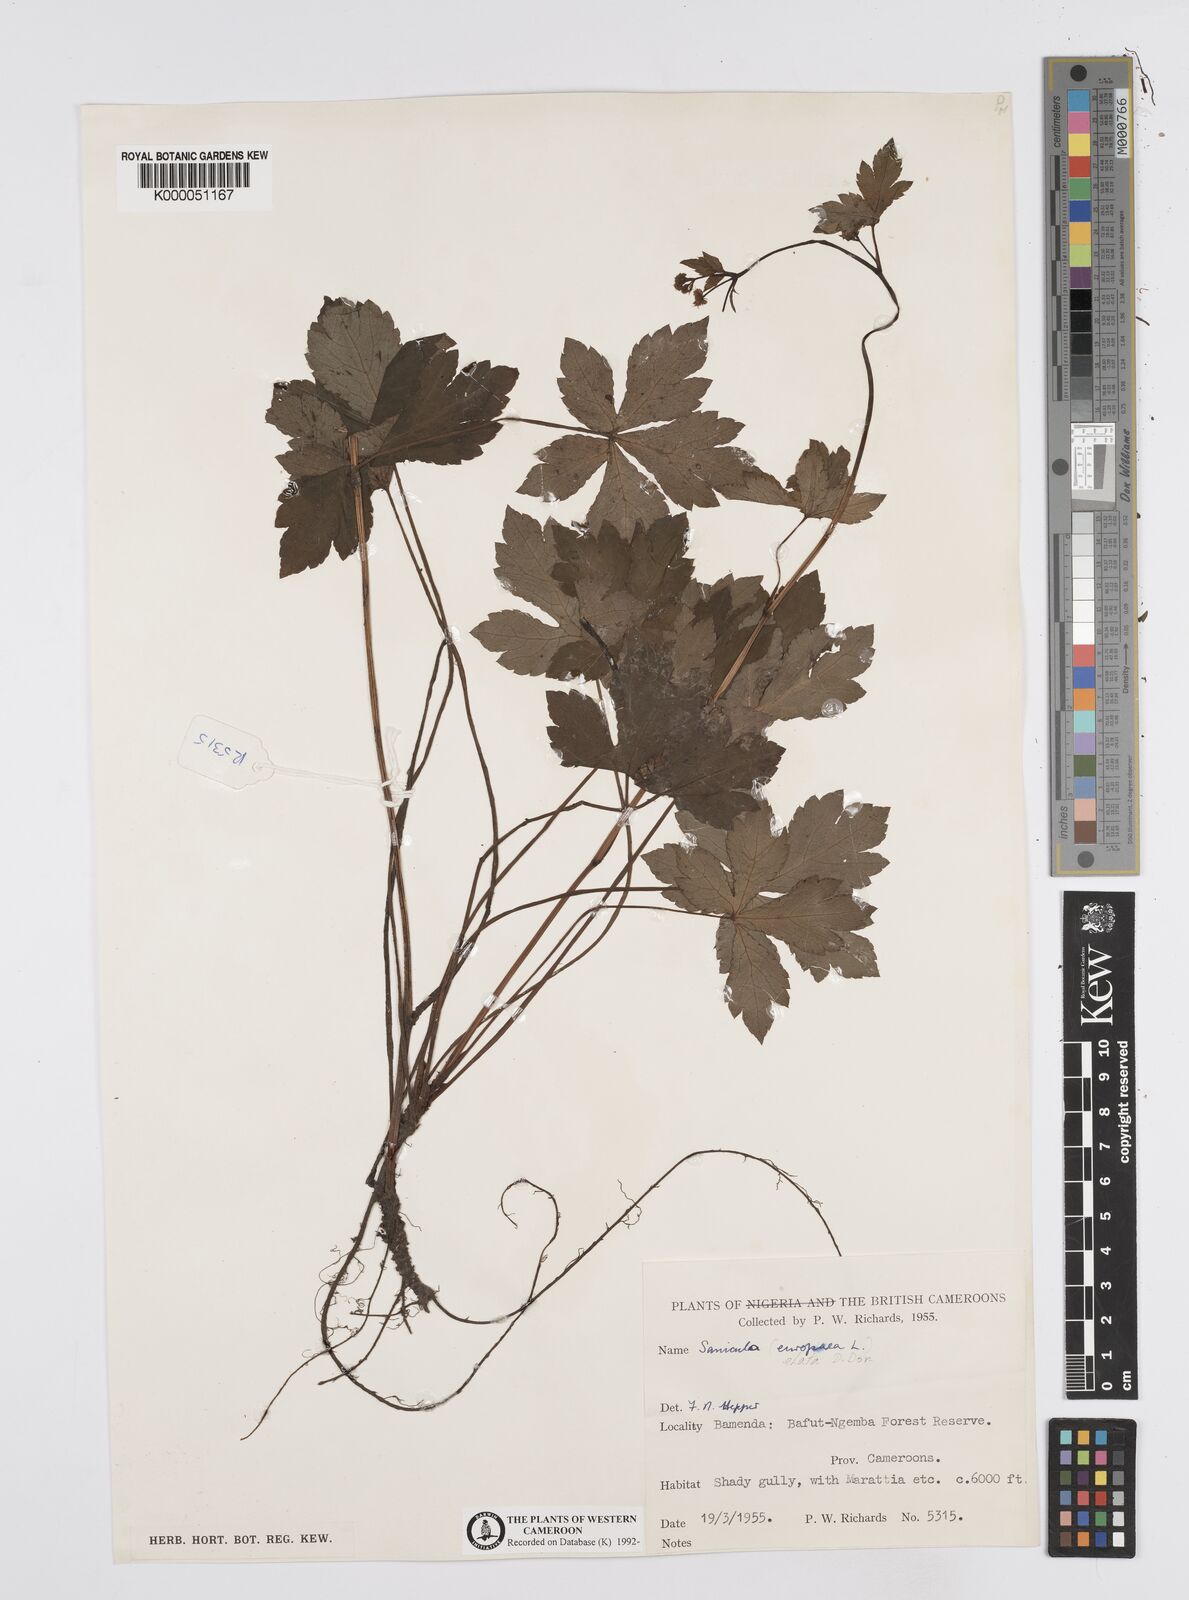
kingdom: Plantae
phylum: Tracheophyta
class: Magnoliopsida
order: Apiales
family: Apiaceae
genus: Sanicula
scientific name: Sanicula
